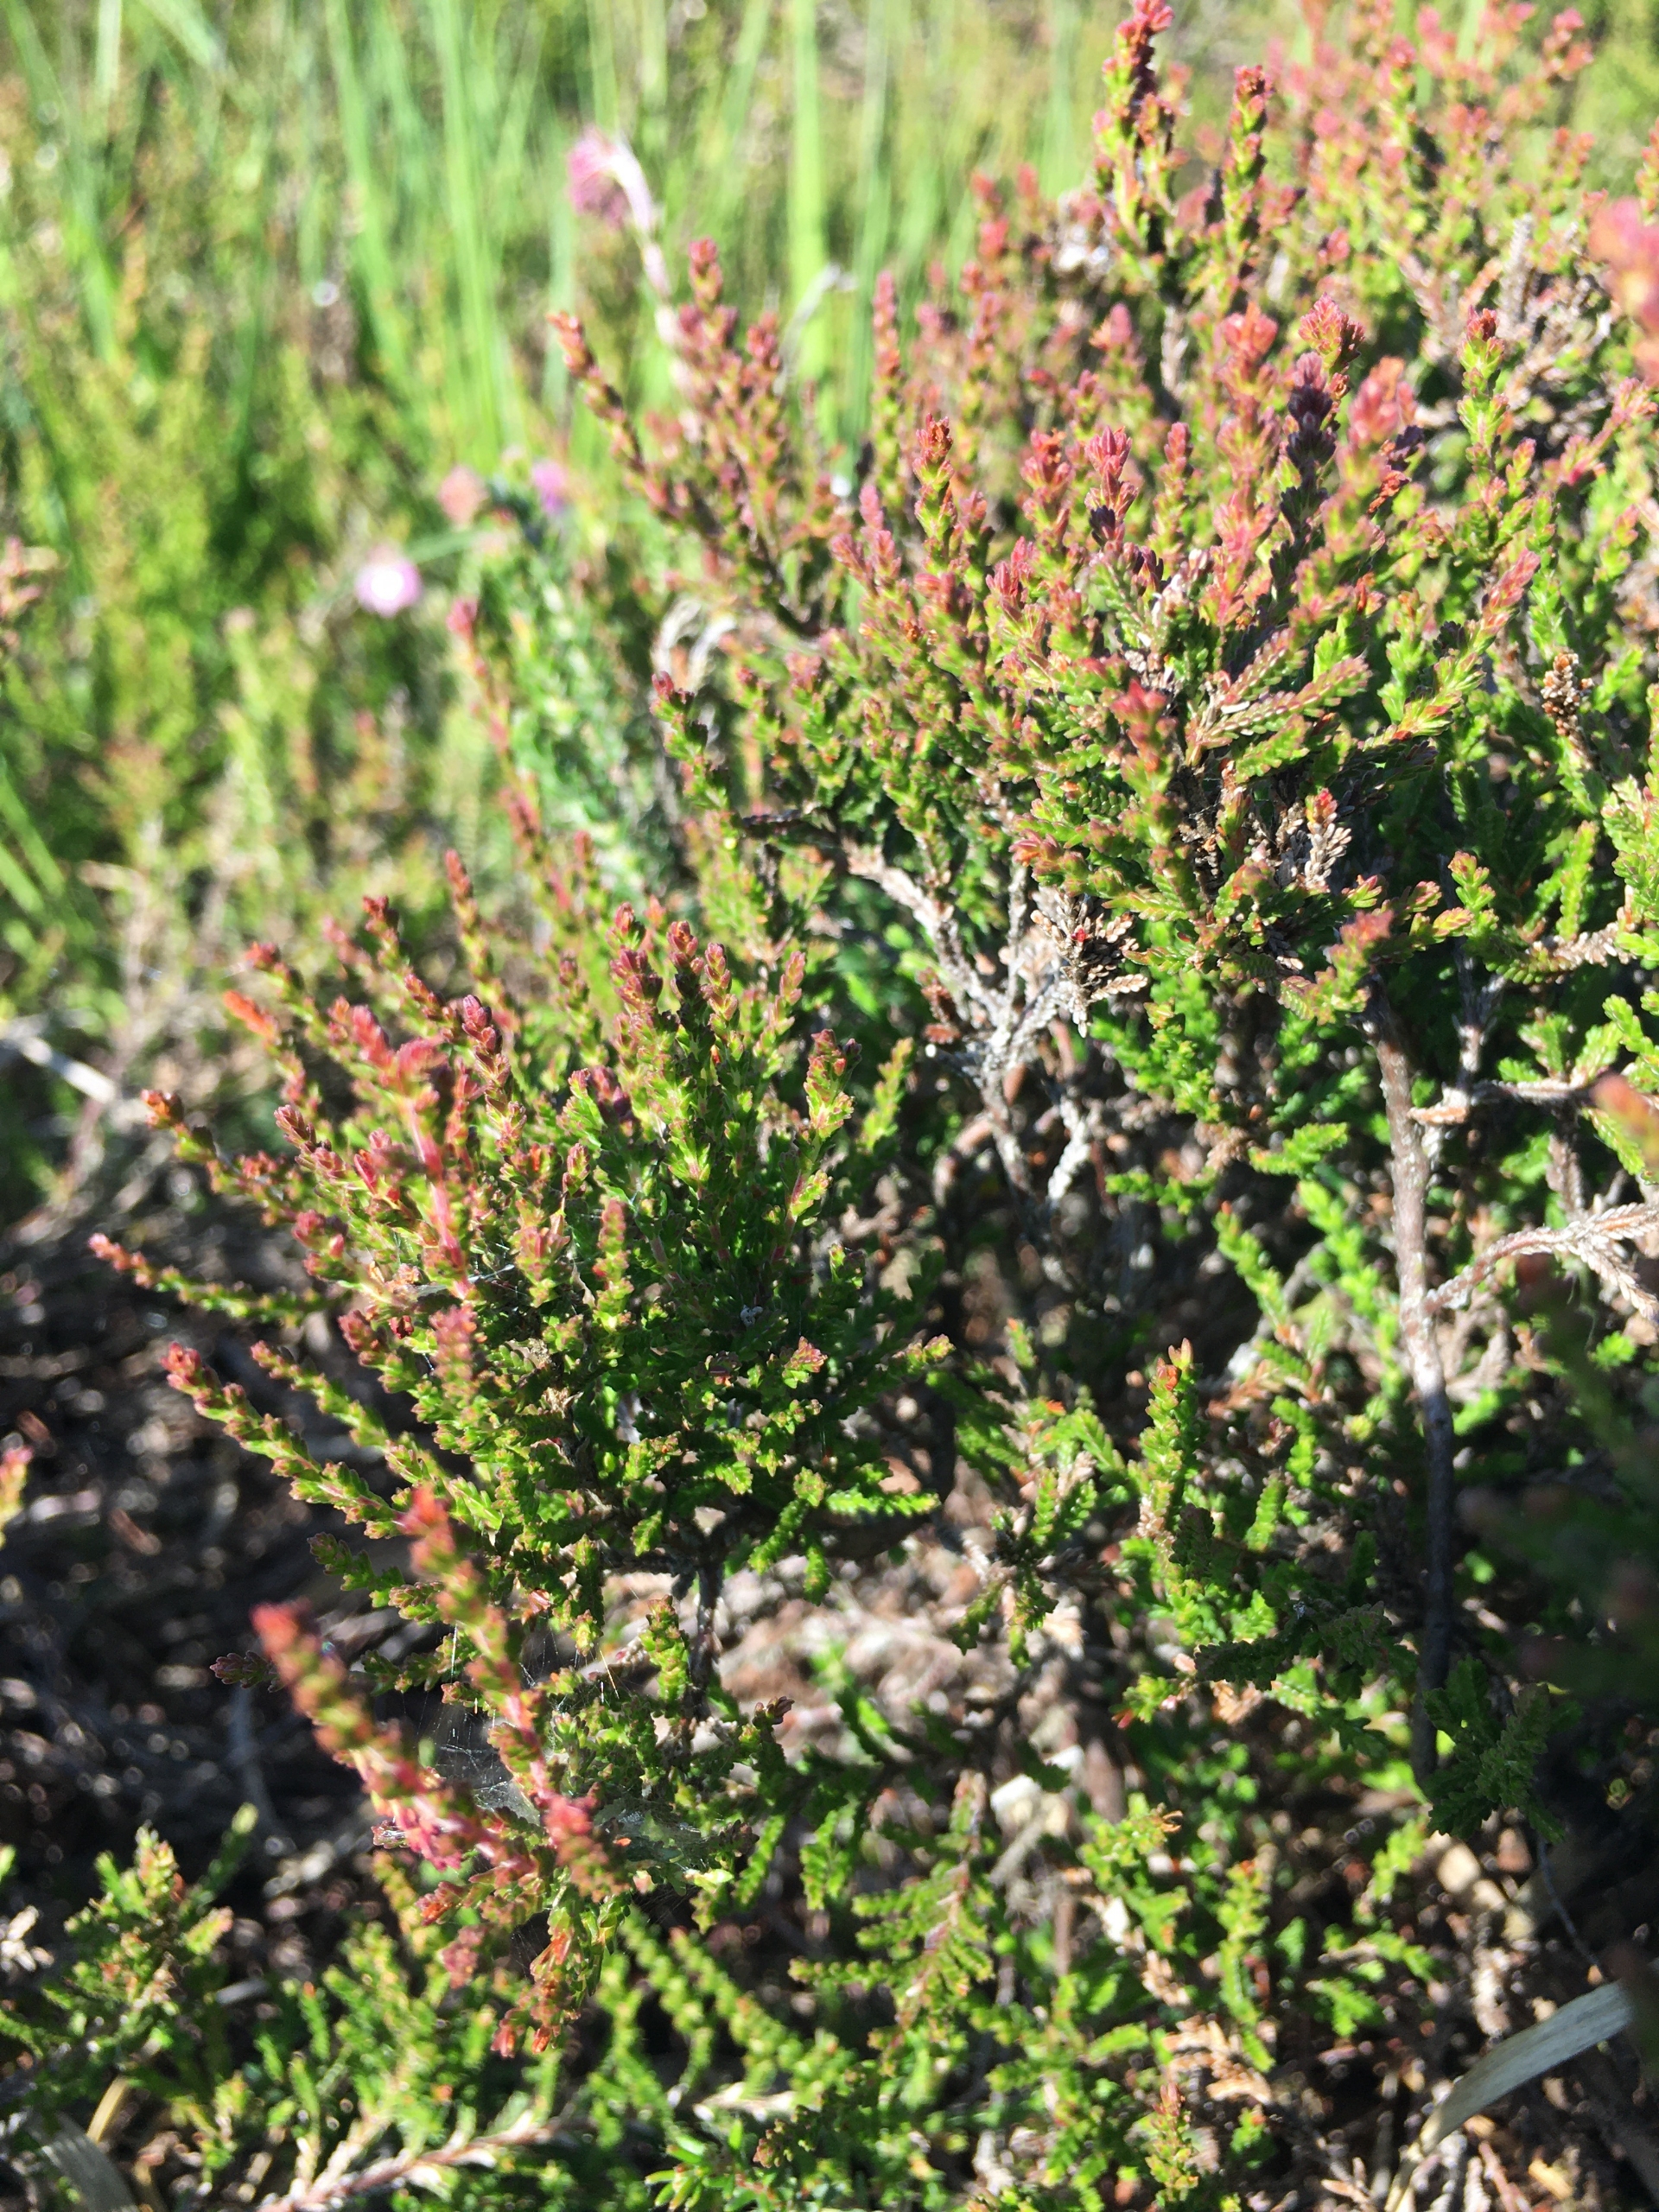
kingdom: Plantae
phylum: Tracheophyta
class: Magnoliopsida
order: Ericales
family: Ericaceae
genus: Calluna
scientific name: Calluna vulgaris
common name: Hedelyng
